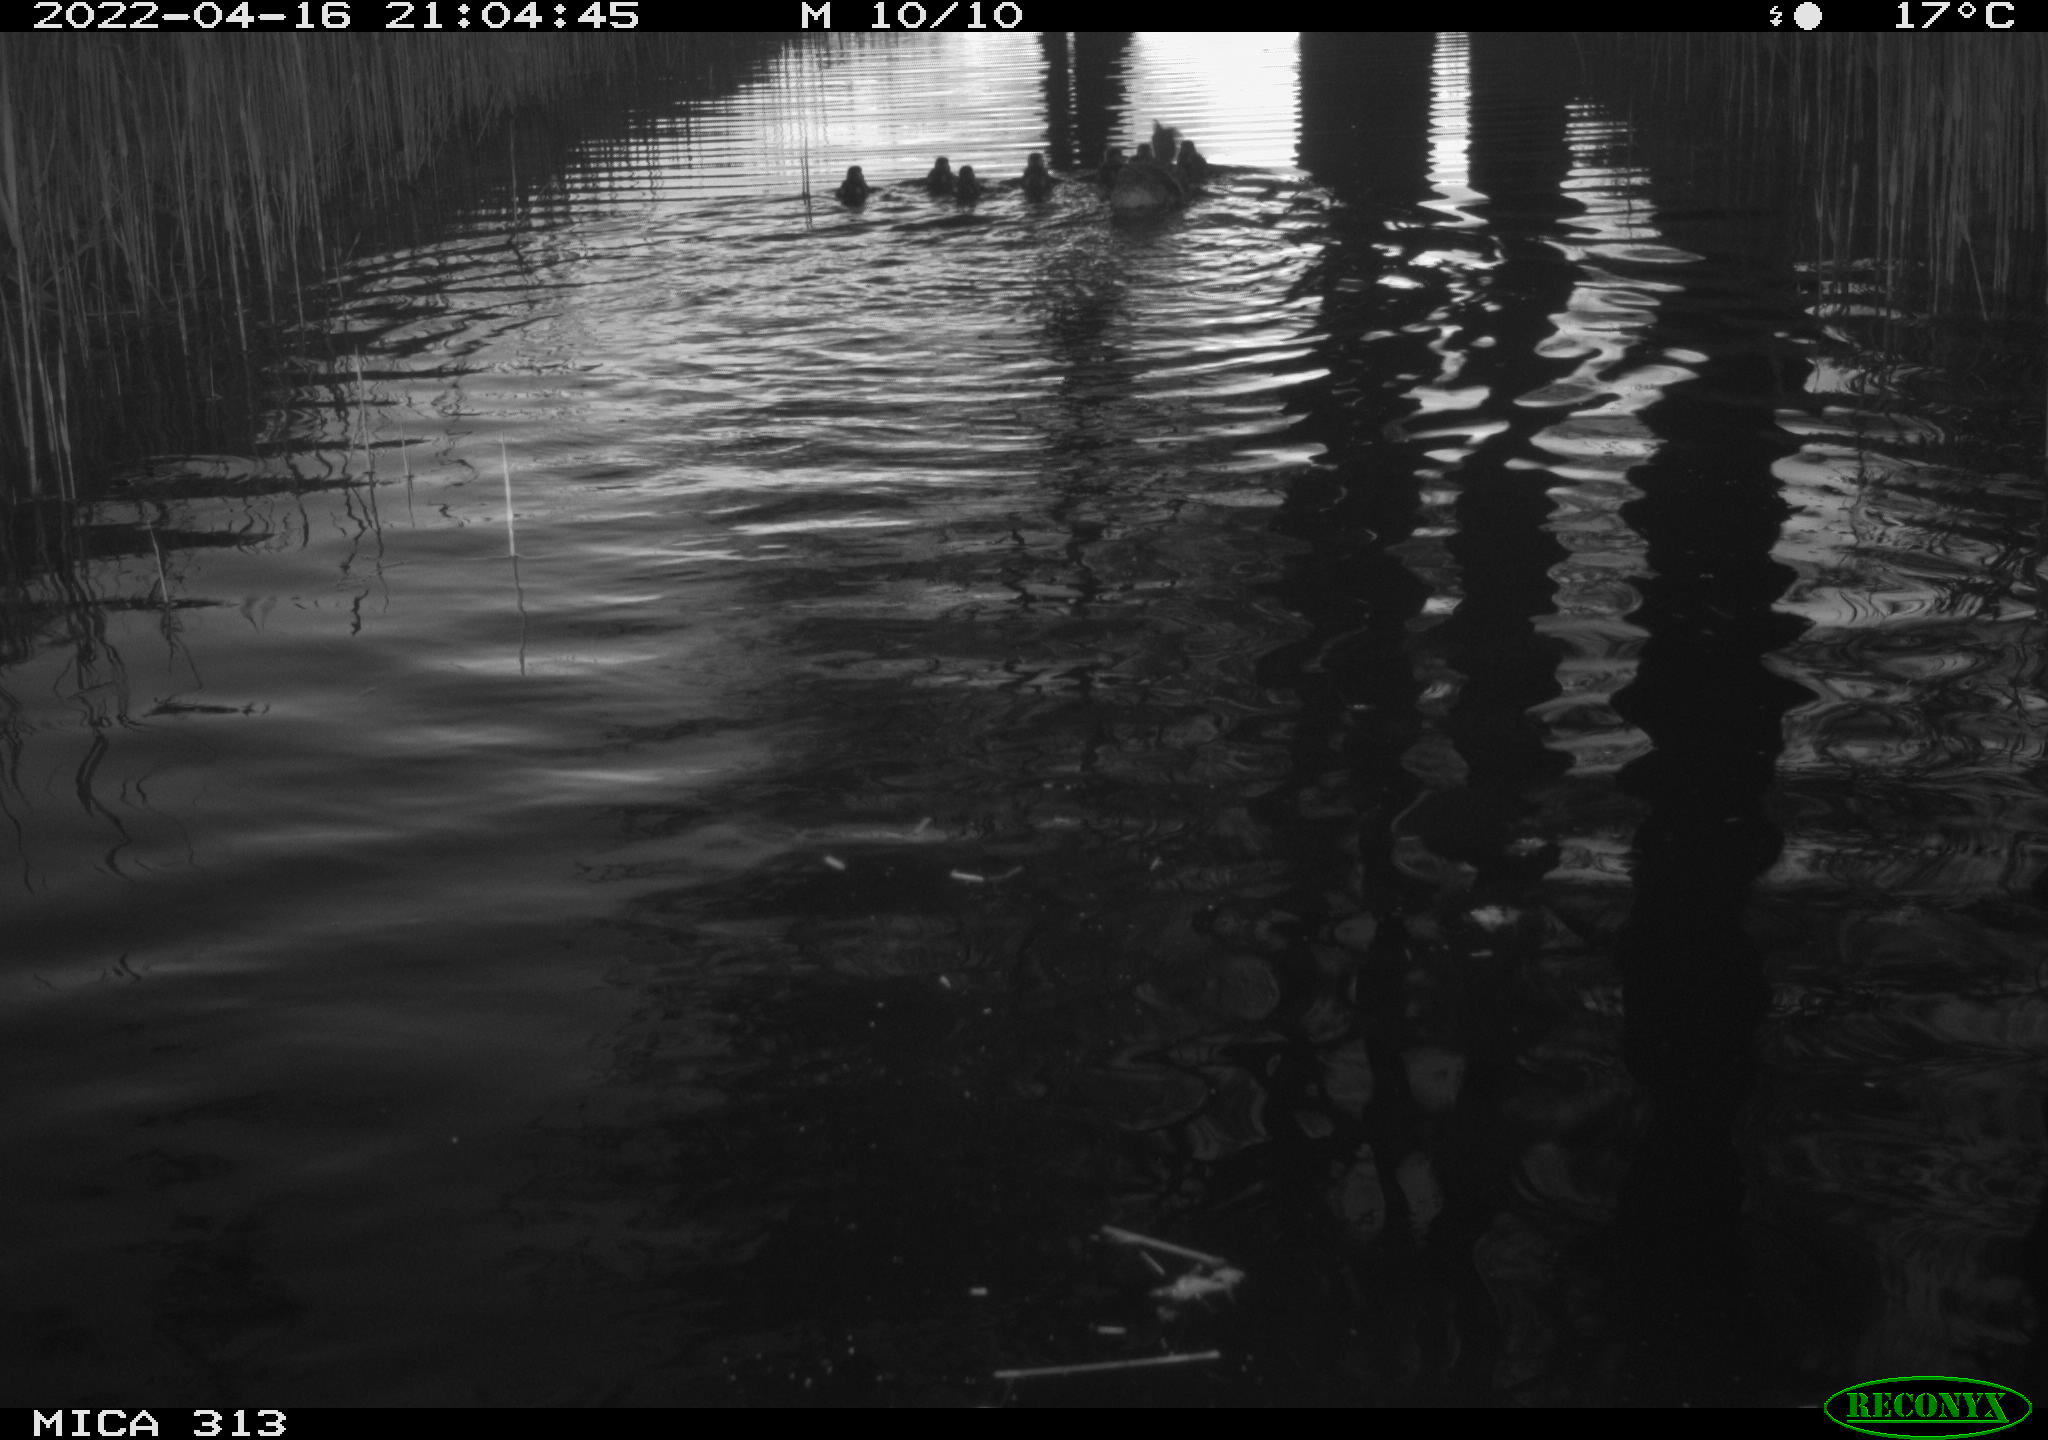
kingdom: Animalia
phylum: Chordata
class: Aves
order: Anseriformes
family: Anatidae
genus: Anas
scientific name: Anas platyrhynchos
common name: Mallard
